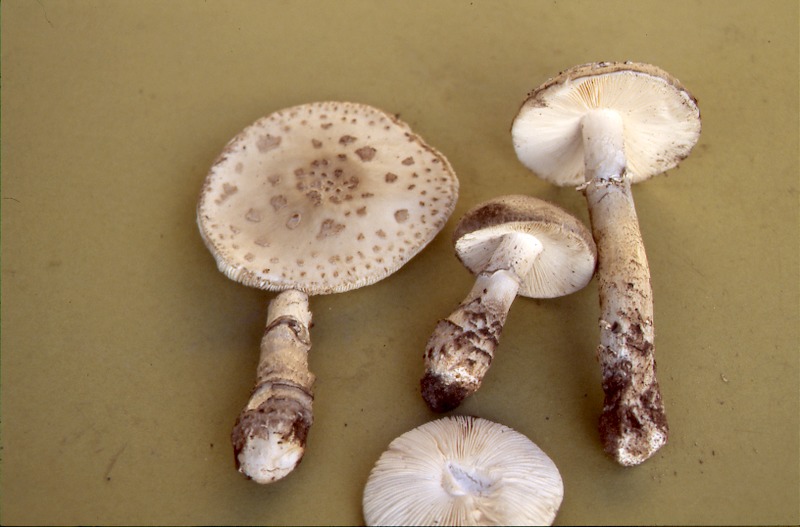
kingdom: Fungi
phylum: Basidiomycota
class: Agaricomycetes
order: Agaricales
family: Amanitaceae
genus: Amanita
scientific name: Amanita excelsa
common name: European false blusher
